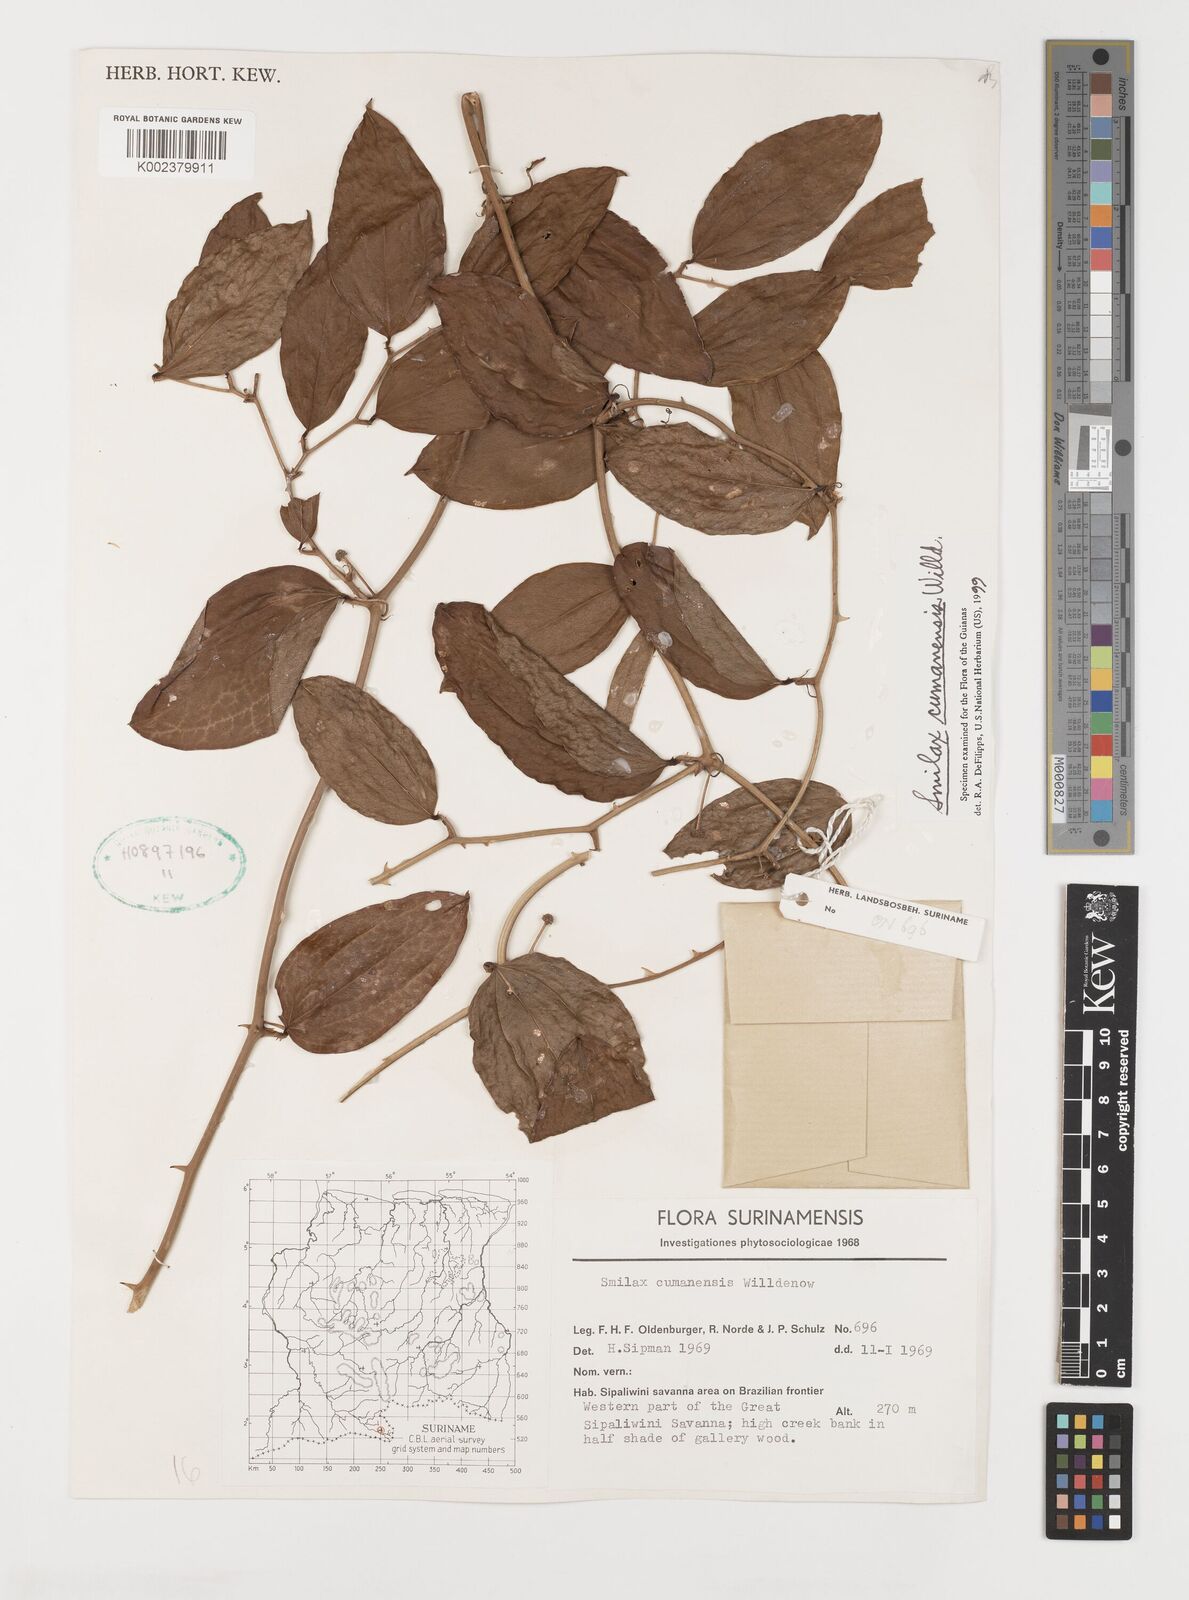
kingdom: Plantae
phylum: Tracheophyta
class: Liliopsida
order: Liliales
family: Smilacaceae
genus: Smilax
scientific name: Smilax oblongata
